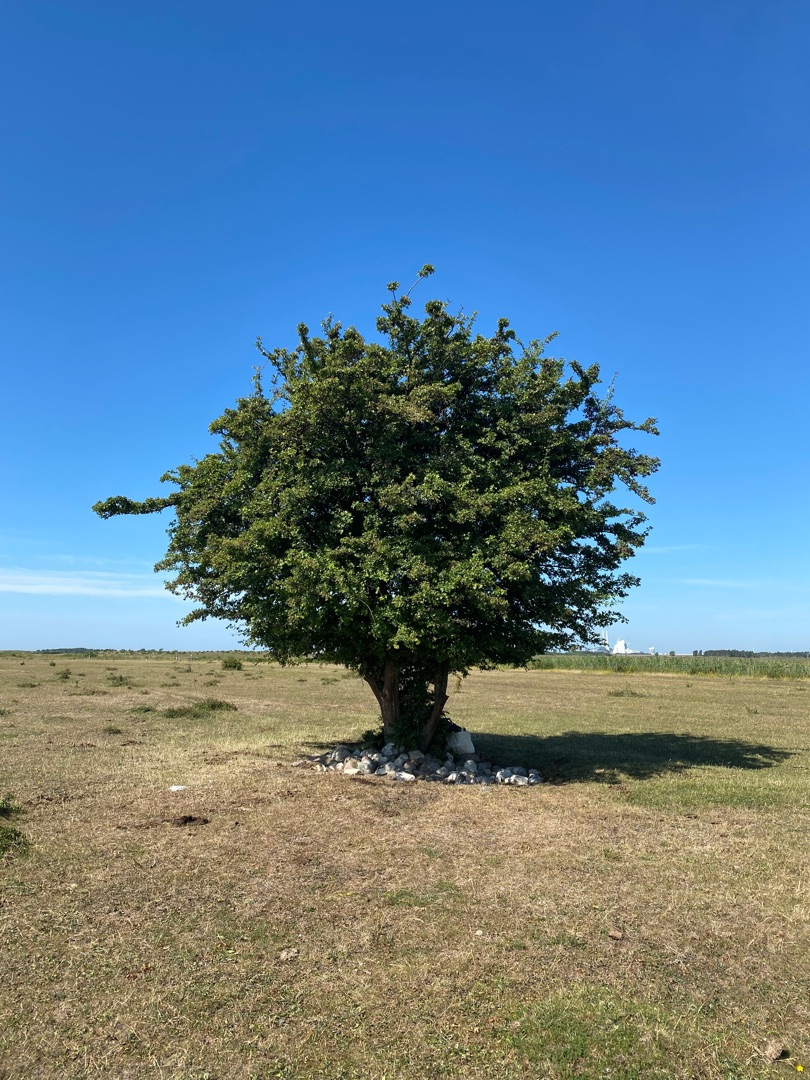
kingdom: Plantae
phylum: Tracheophyta
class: Magnoliopsida
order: Rosales
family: Rosaceae
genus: Crataegus
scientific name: Crataegus monogyna
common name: Engriflet hvidtjørn
